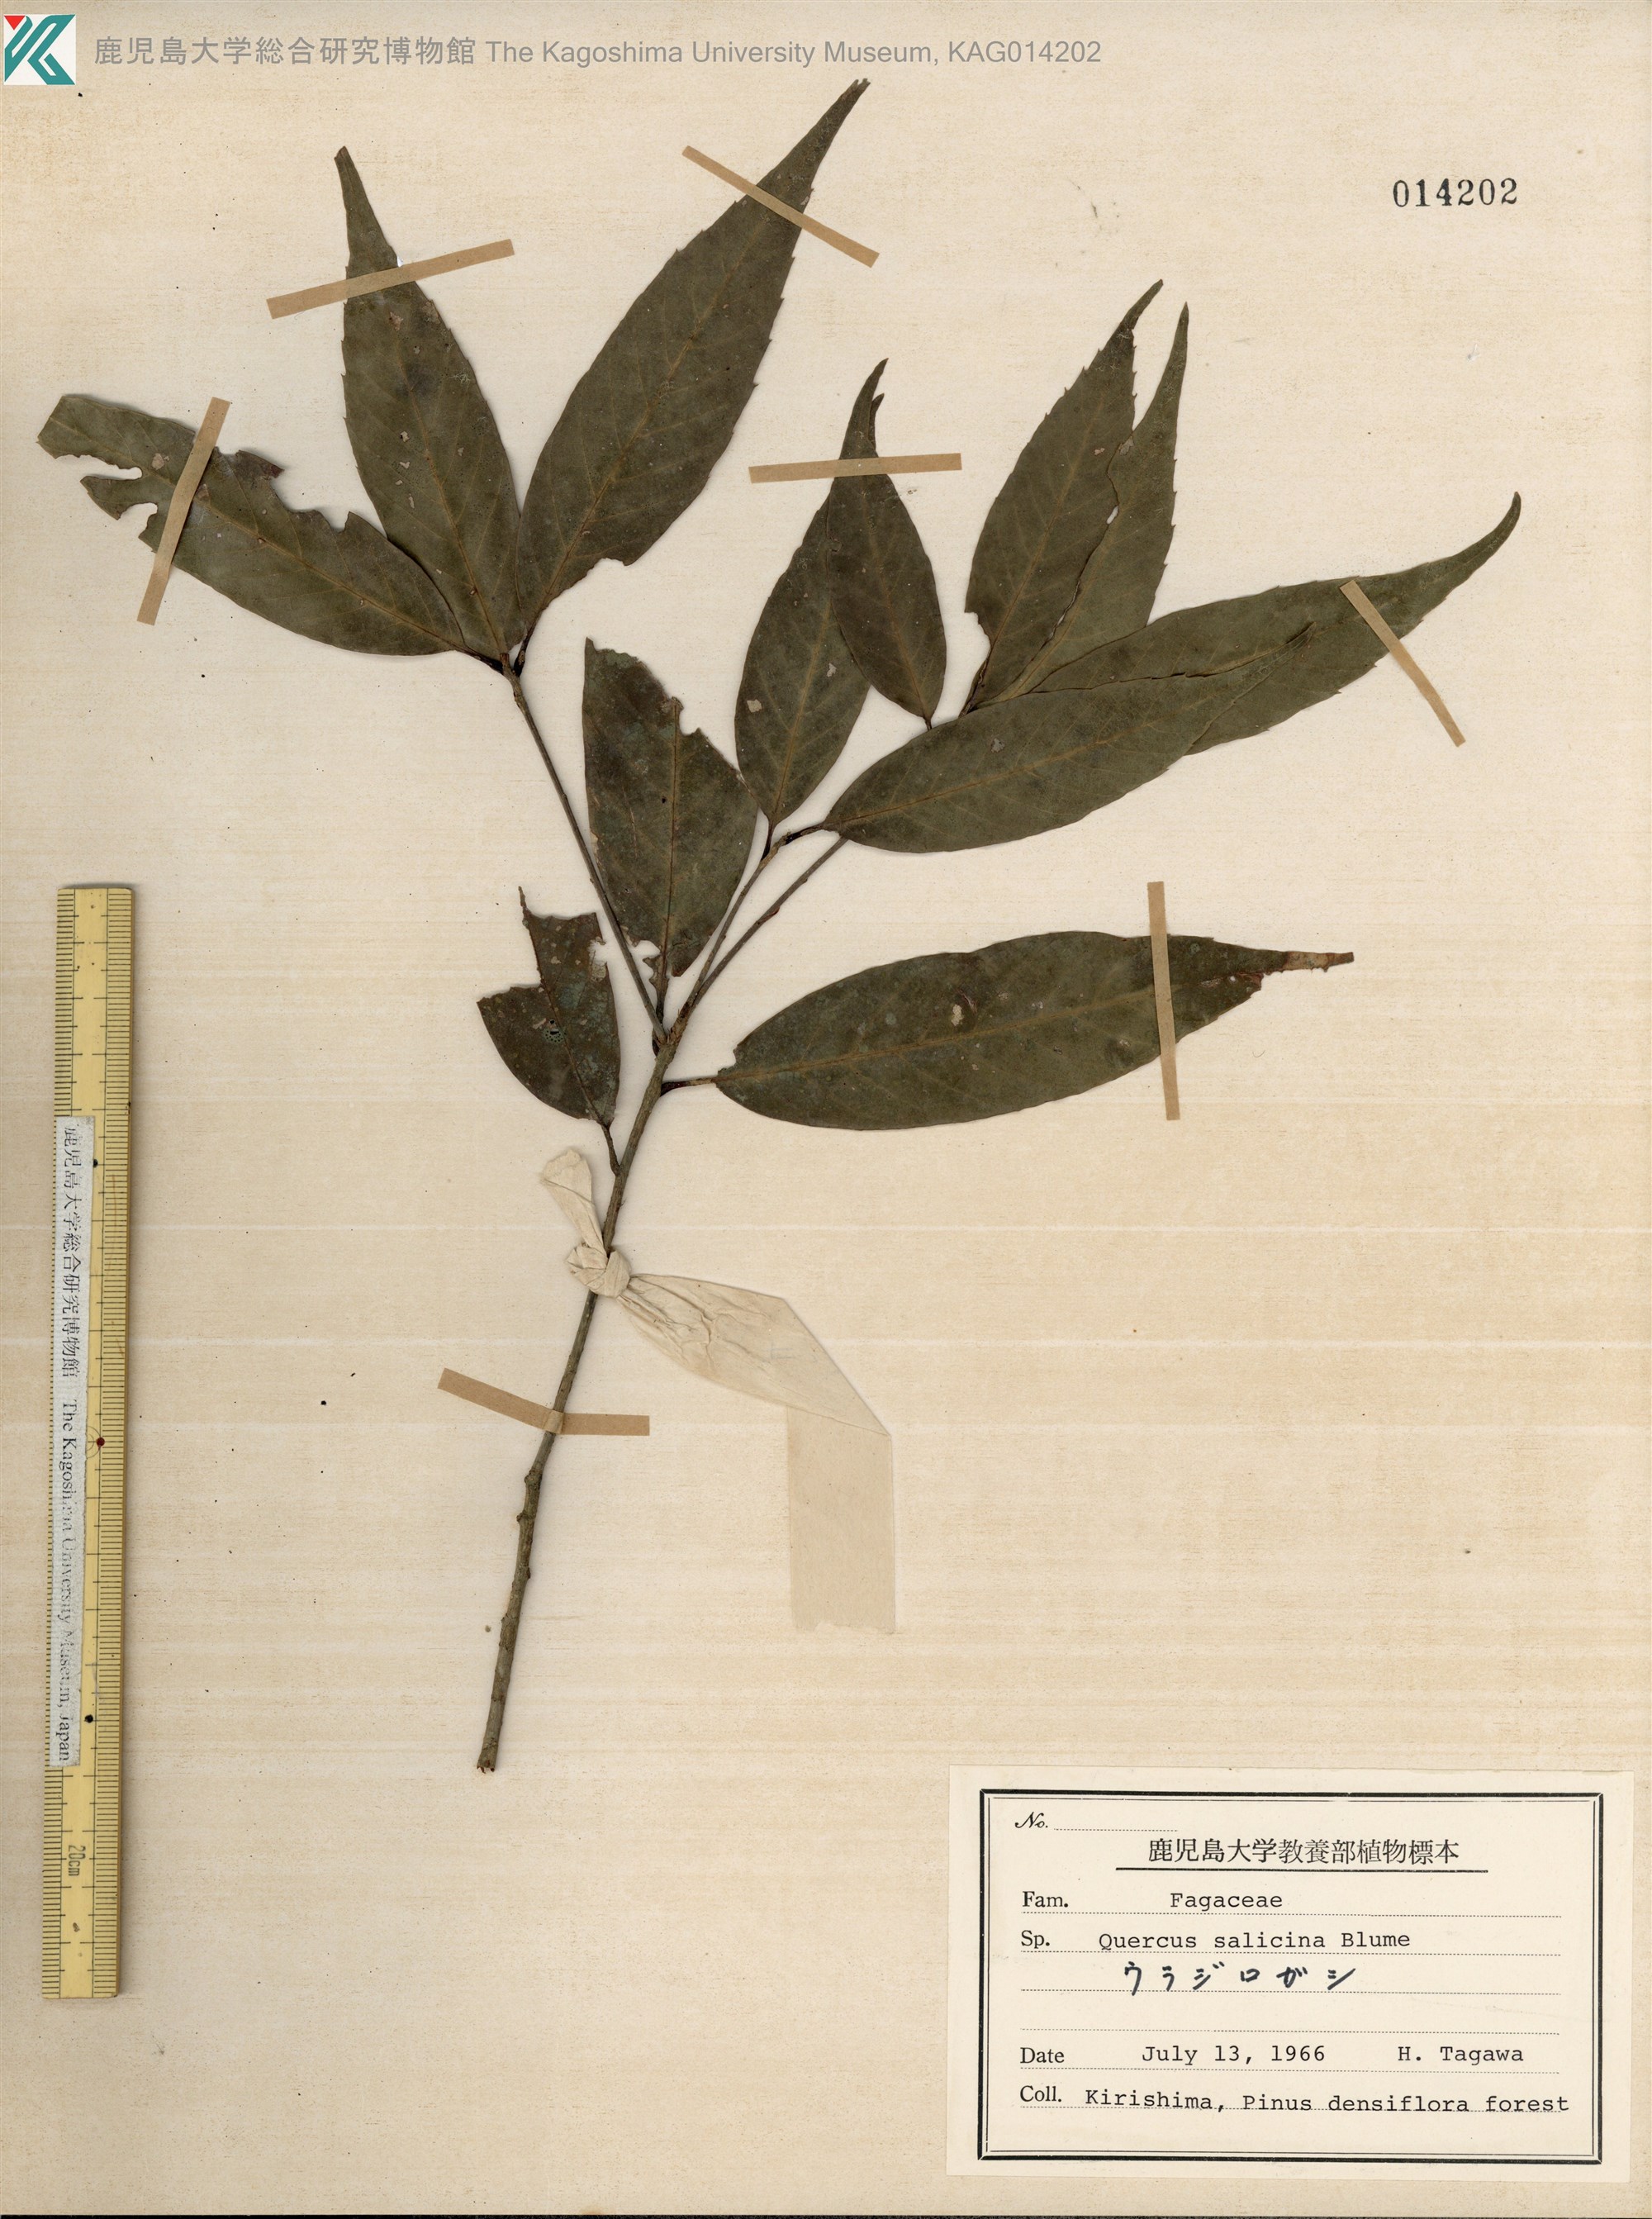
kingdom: Plantae
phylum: Tracheophyta
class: Magnoliopsida
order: Fagales
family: Fagaceae
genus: Quercus
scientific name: Quercus salicina
